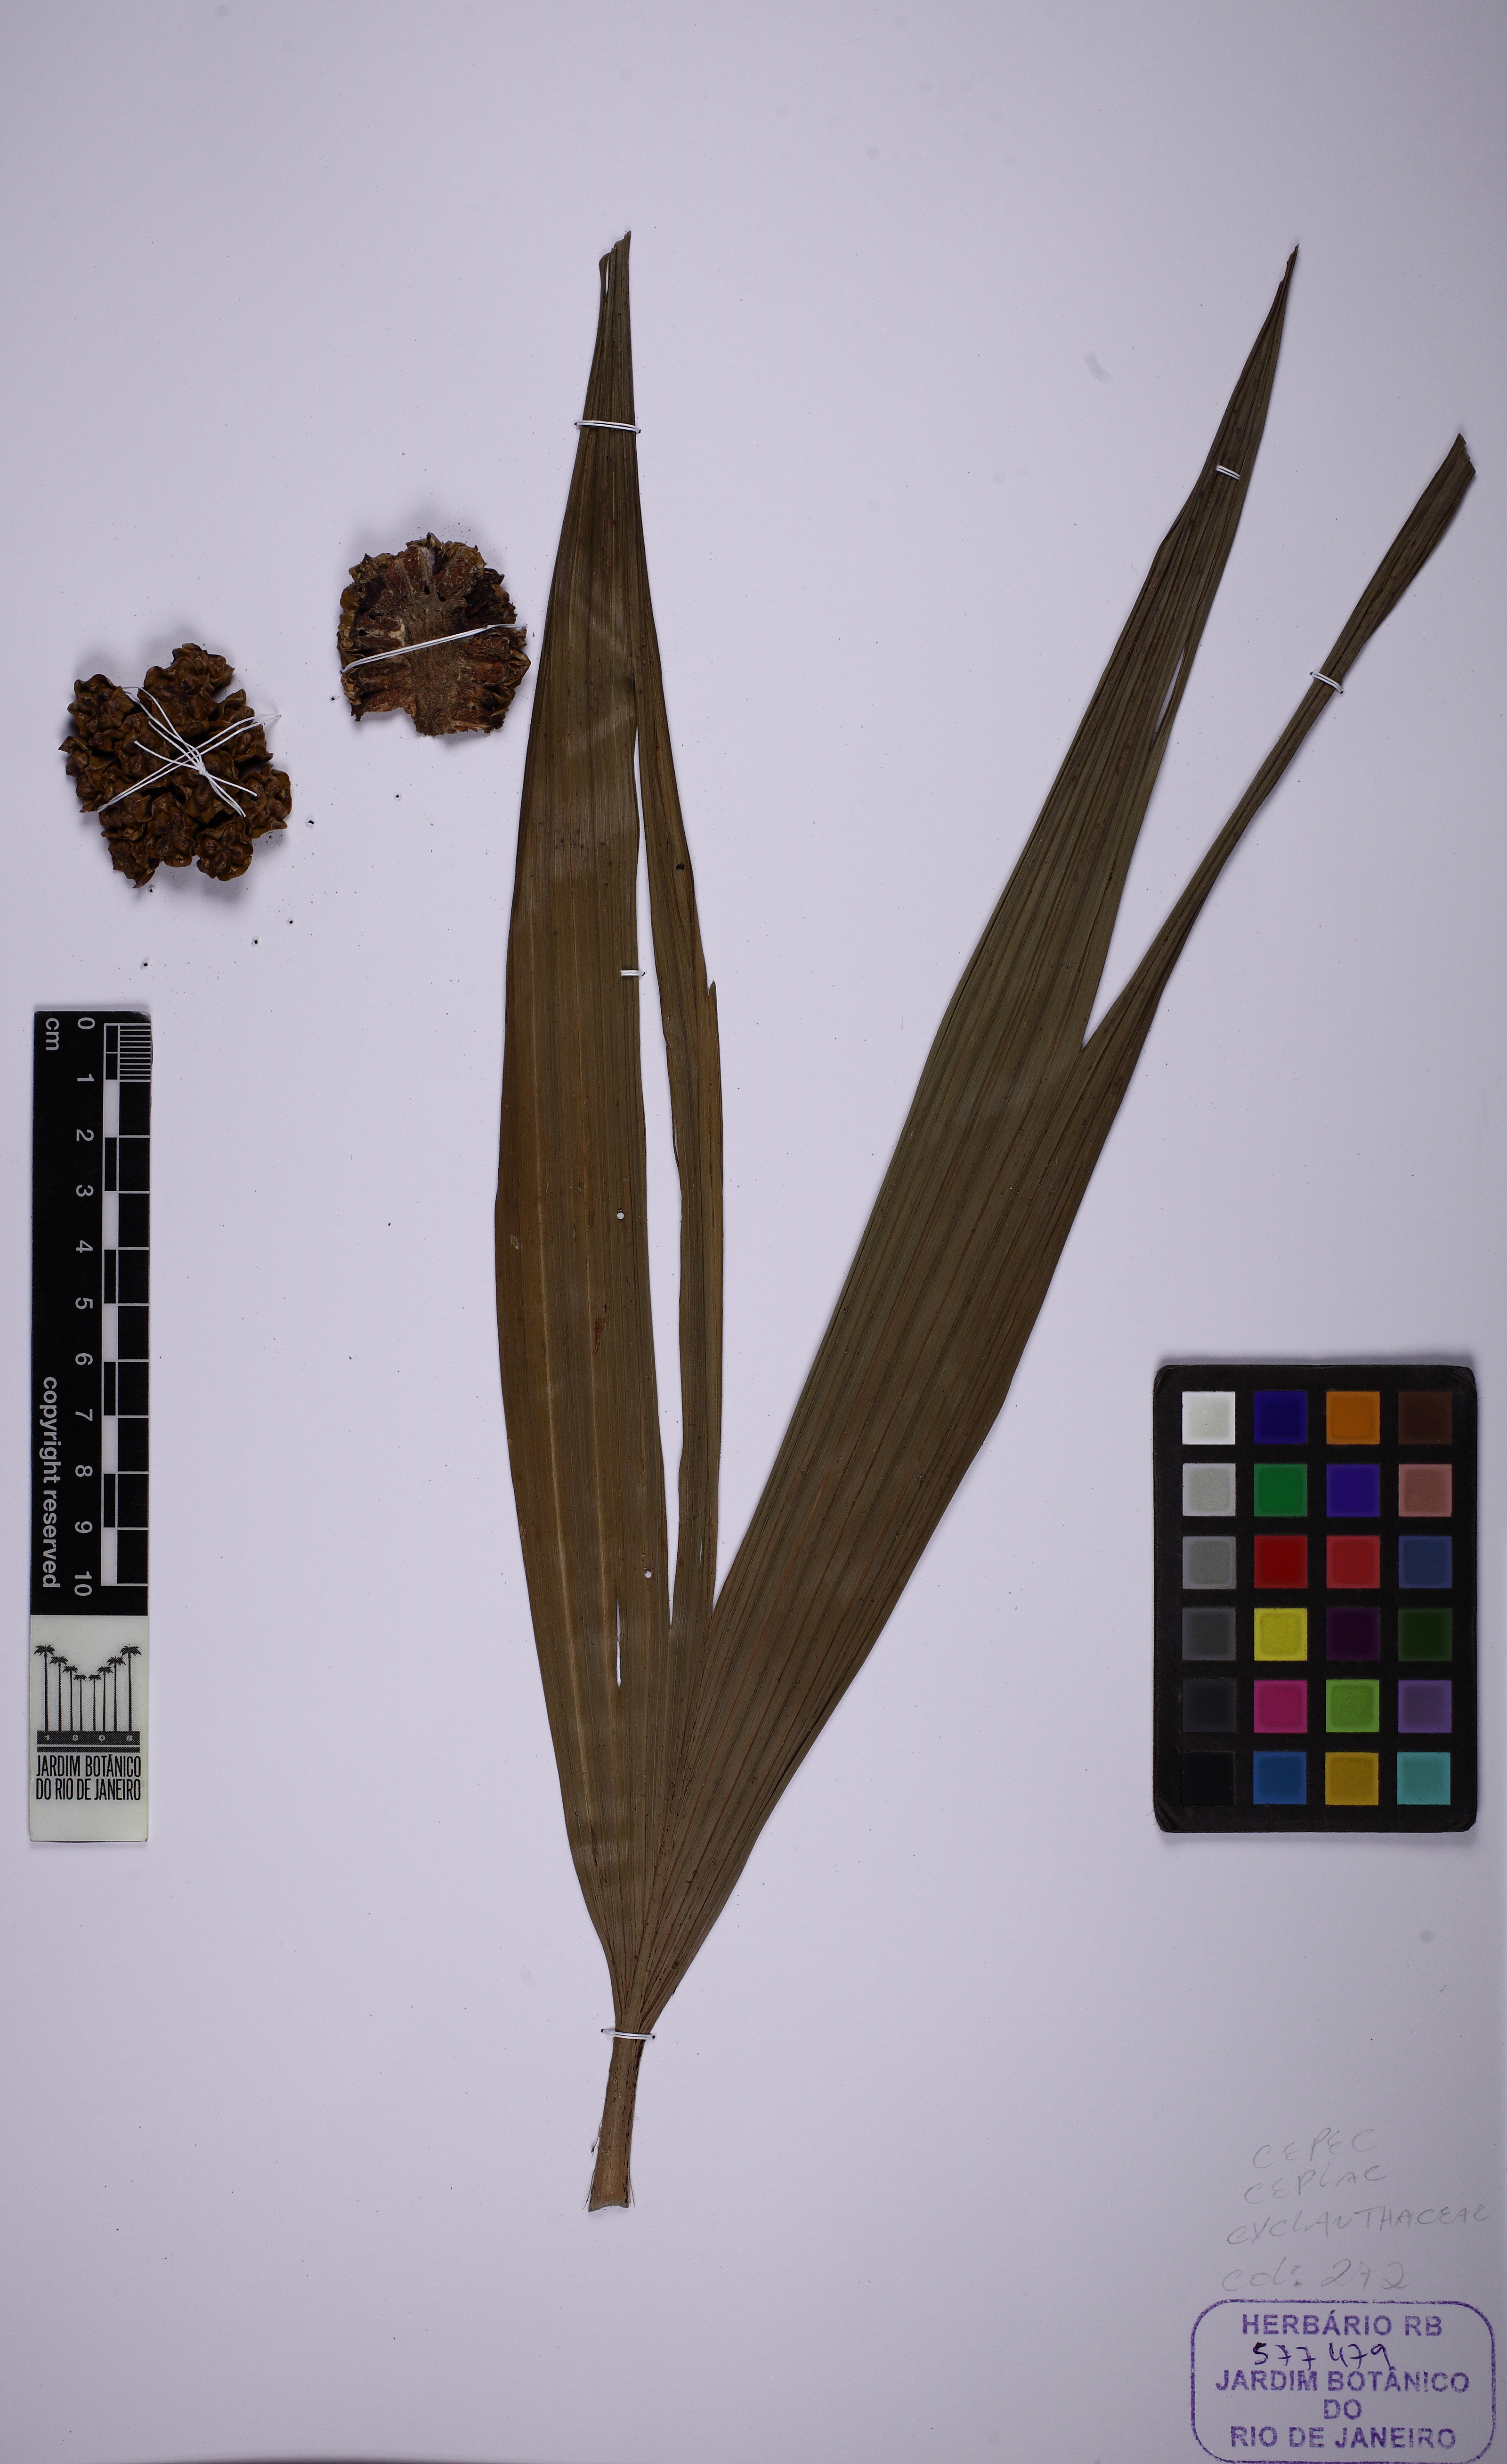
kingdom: Plantae
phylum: Tracheophyta
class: Liliopsida
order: Pandanales
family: Cyclanthaceae
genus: Thoracocarpus
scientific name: Thoracocarpus bissectus
